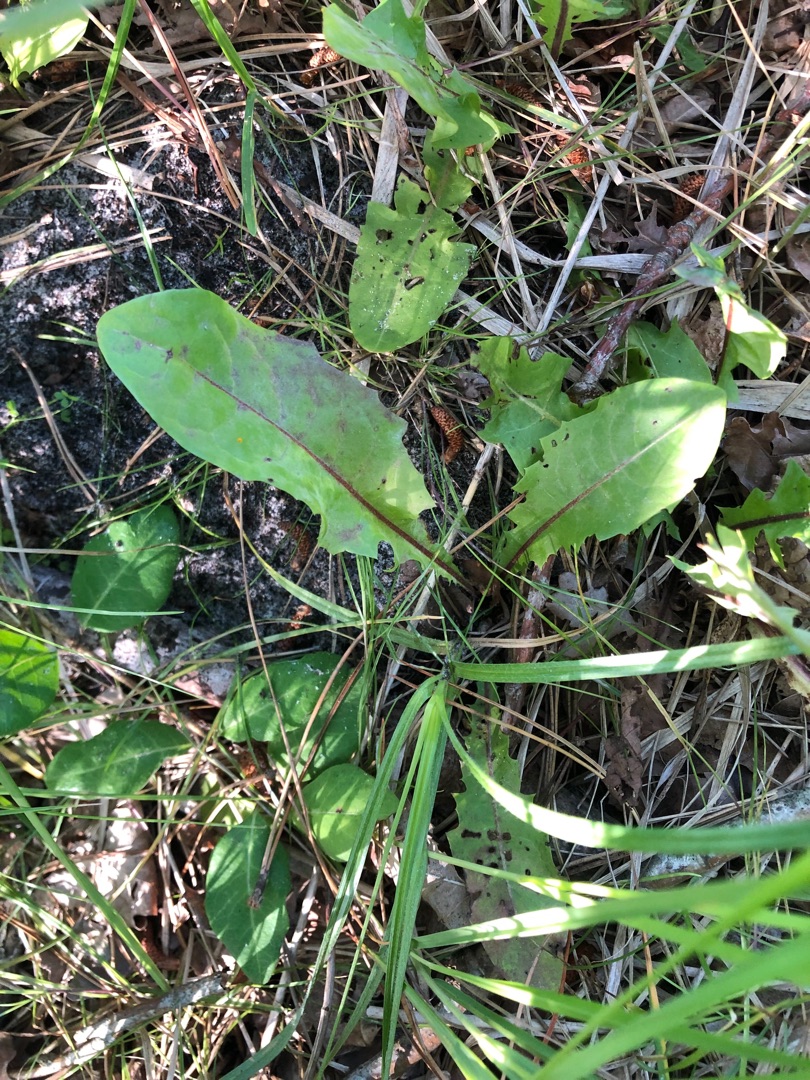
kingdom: Plantae
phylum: Tracheophyta
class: Magnoliopsida
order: Asterales
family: Asteraceae
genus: Taraxacum
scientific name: Taraxacum
